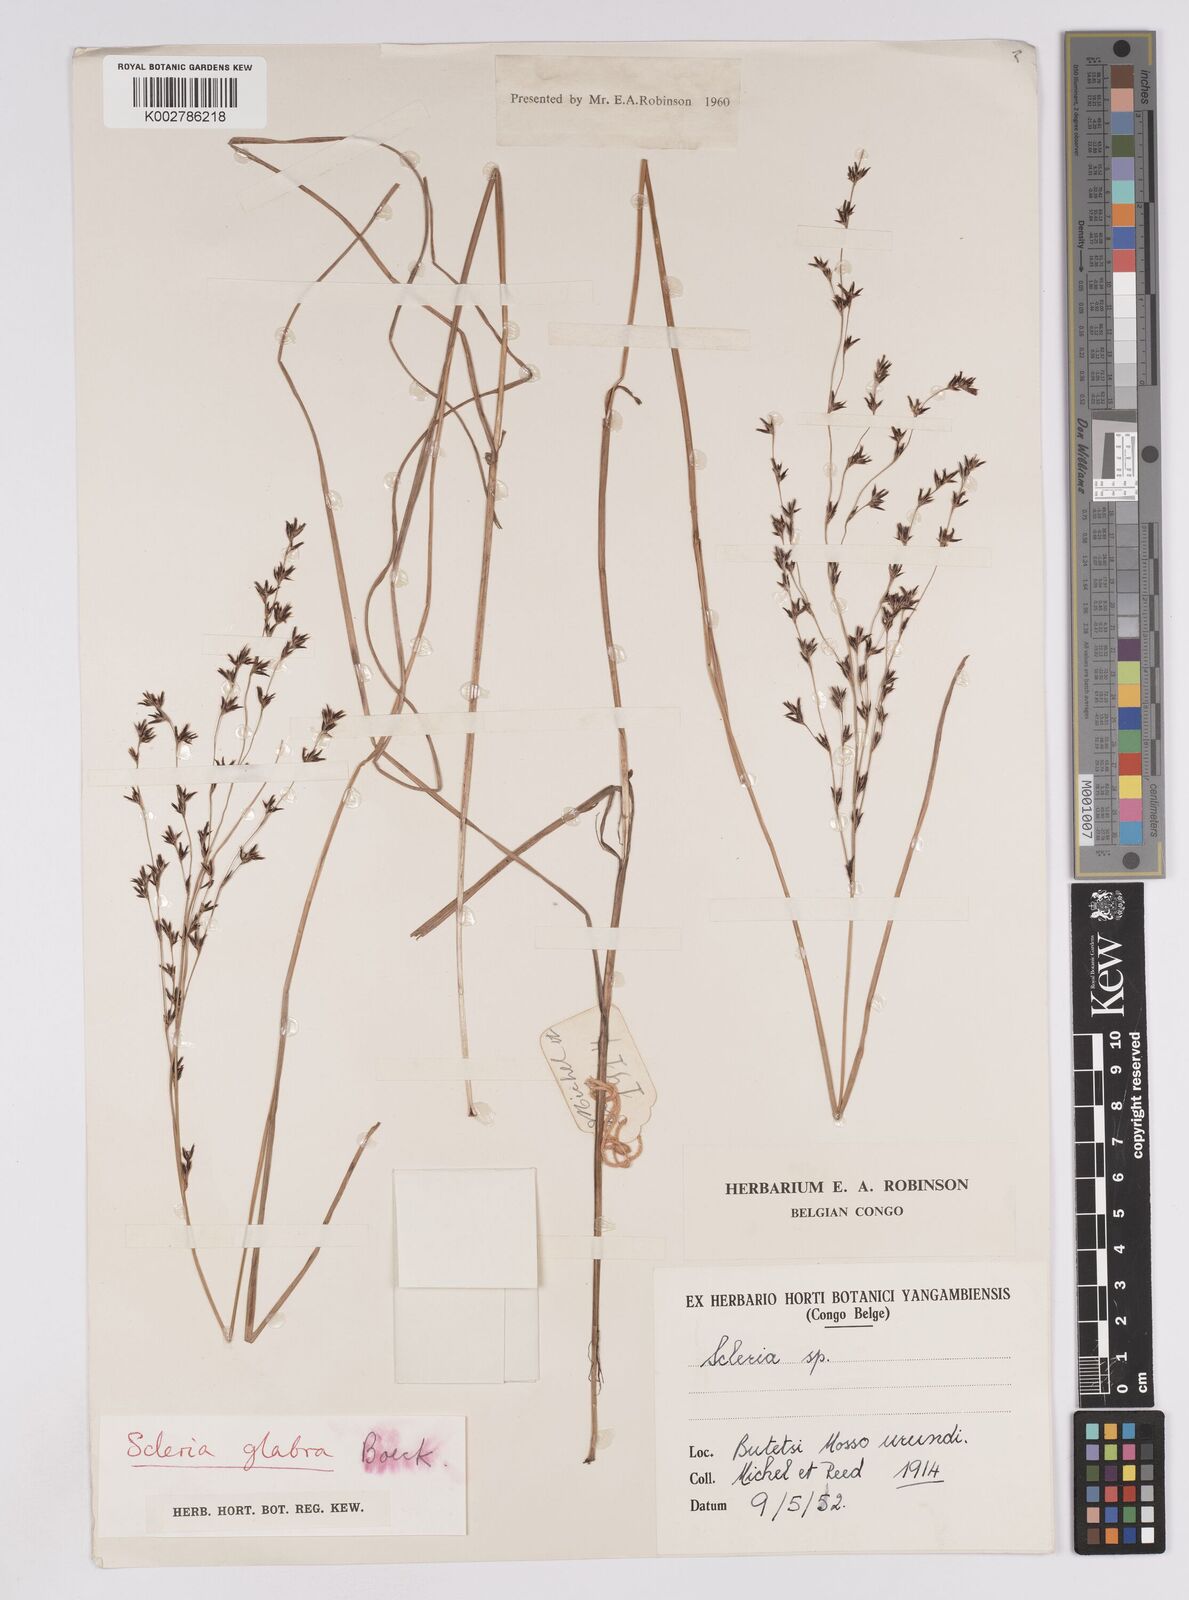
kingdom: Plantae
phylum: Tracheophyta
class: Liliopsida
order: Poales
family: Cyperaceae
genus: Scleria
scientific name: Scleria glabra
